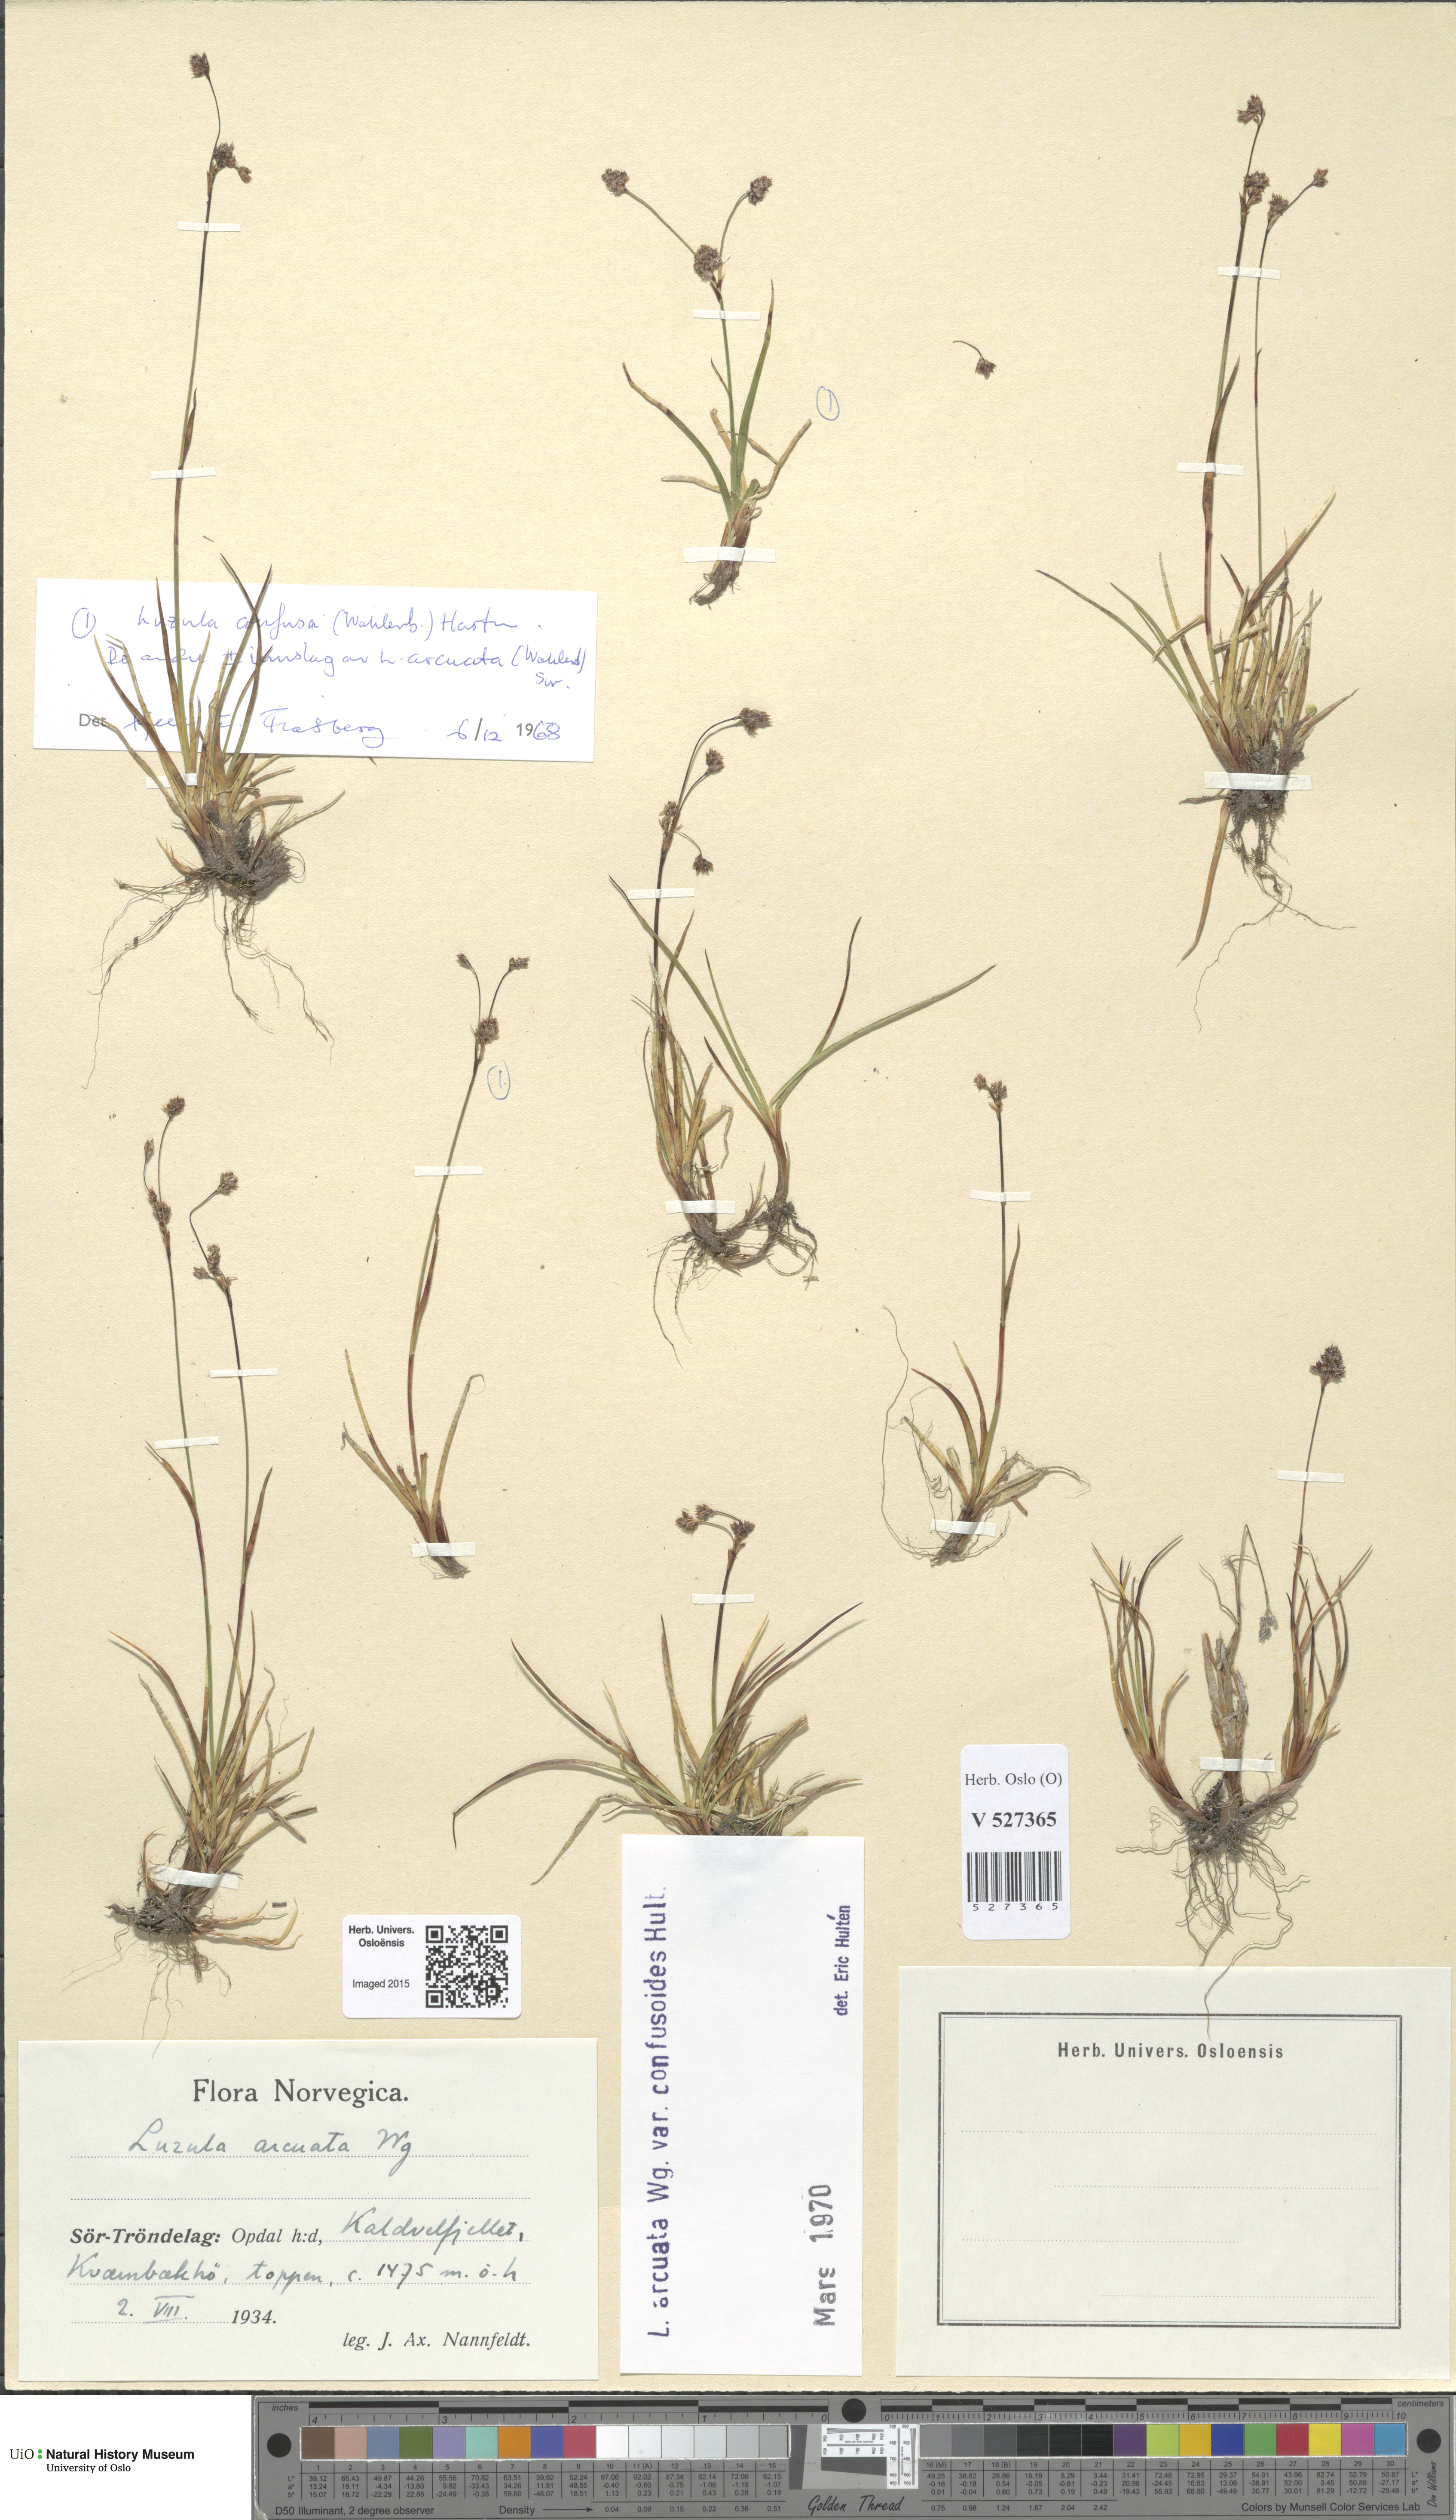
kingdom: Plantae
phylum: Tracheophyta
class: Liliopsida
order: Poales
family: Juncaceae
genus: Luzula
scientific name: Luzula arcuata
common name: Curved wood-rush
